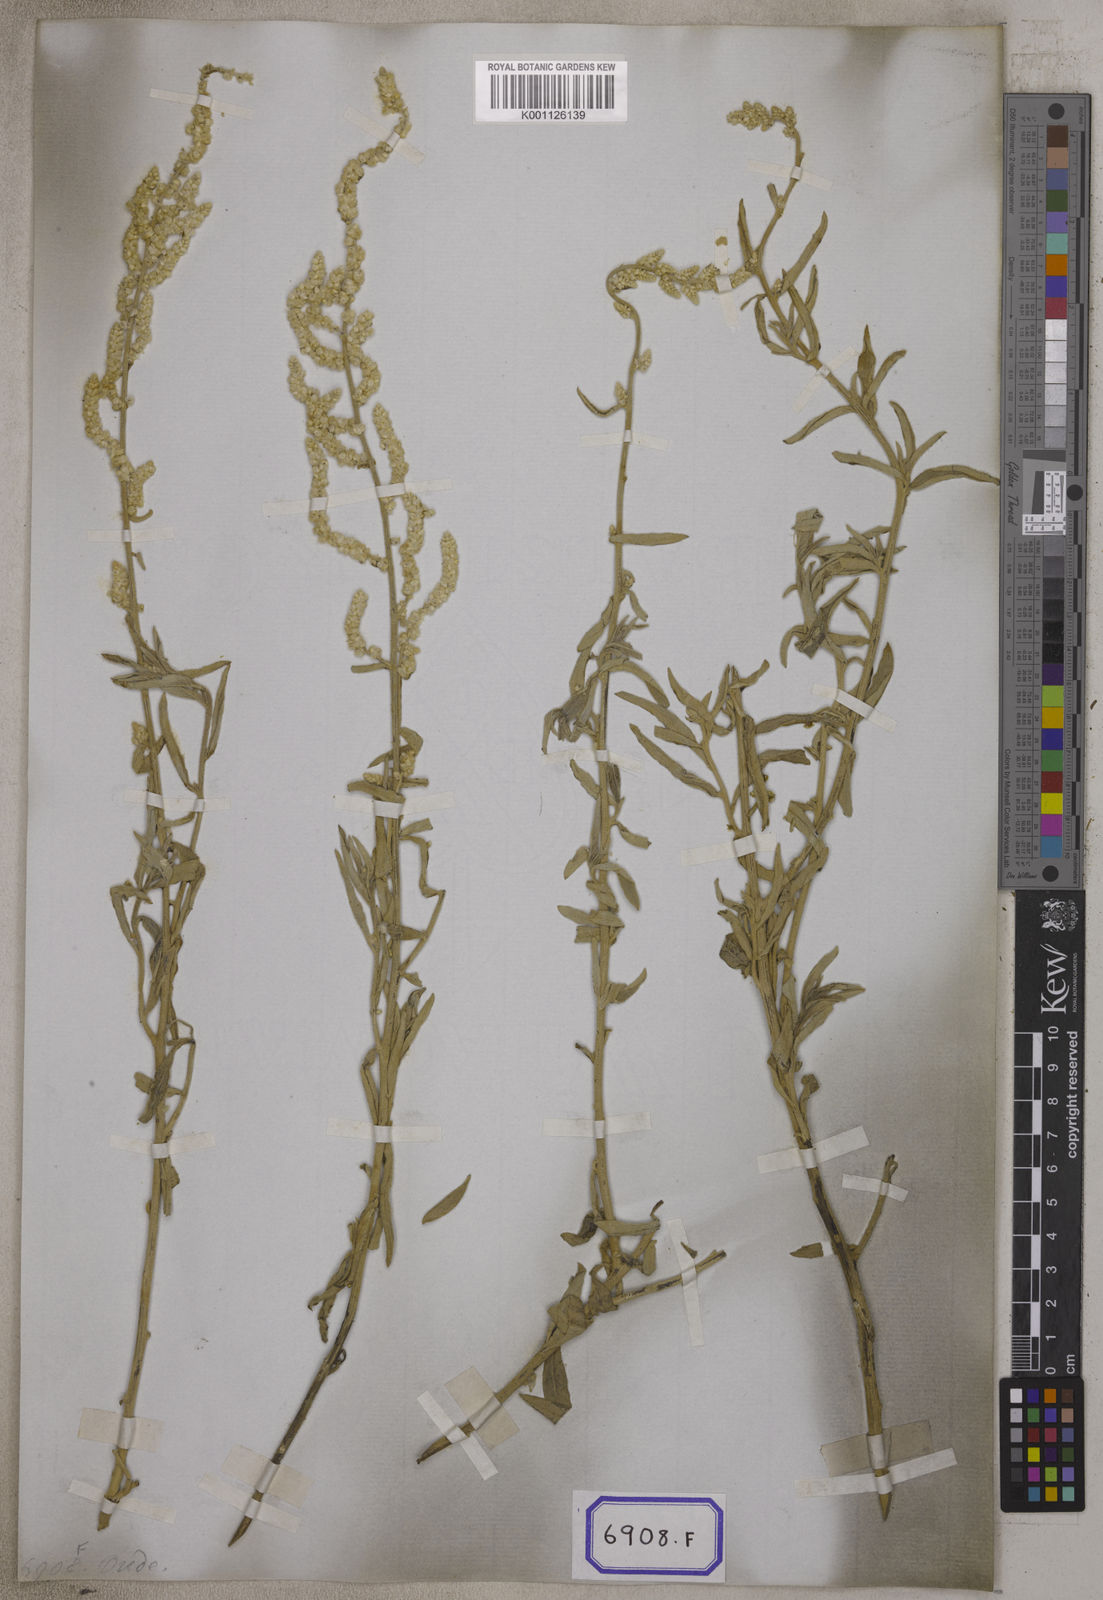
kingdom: Plantae
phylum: Tracheophyta
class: Magnoliopsida
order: Caryophyllales
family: Amaranthaceae
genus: Aerva
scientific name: Aerva
